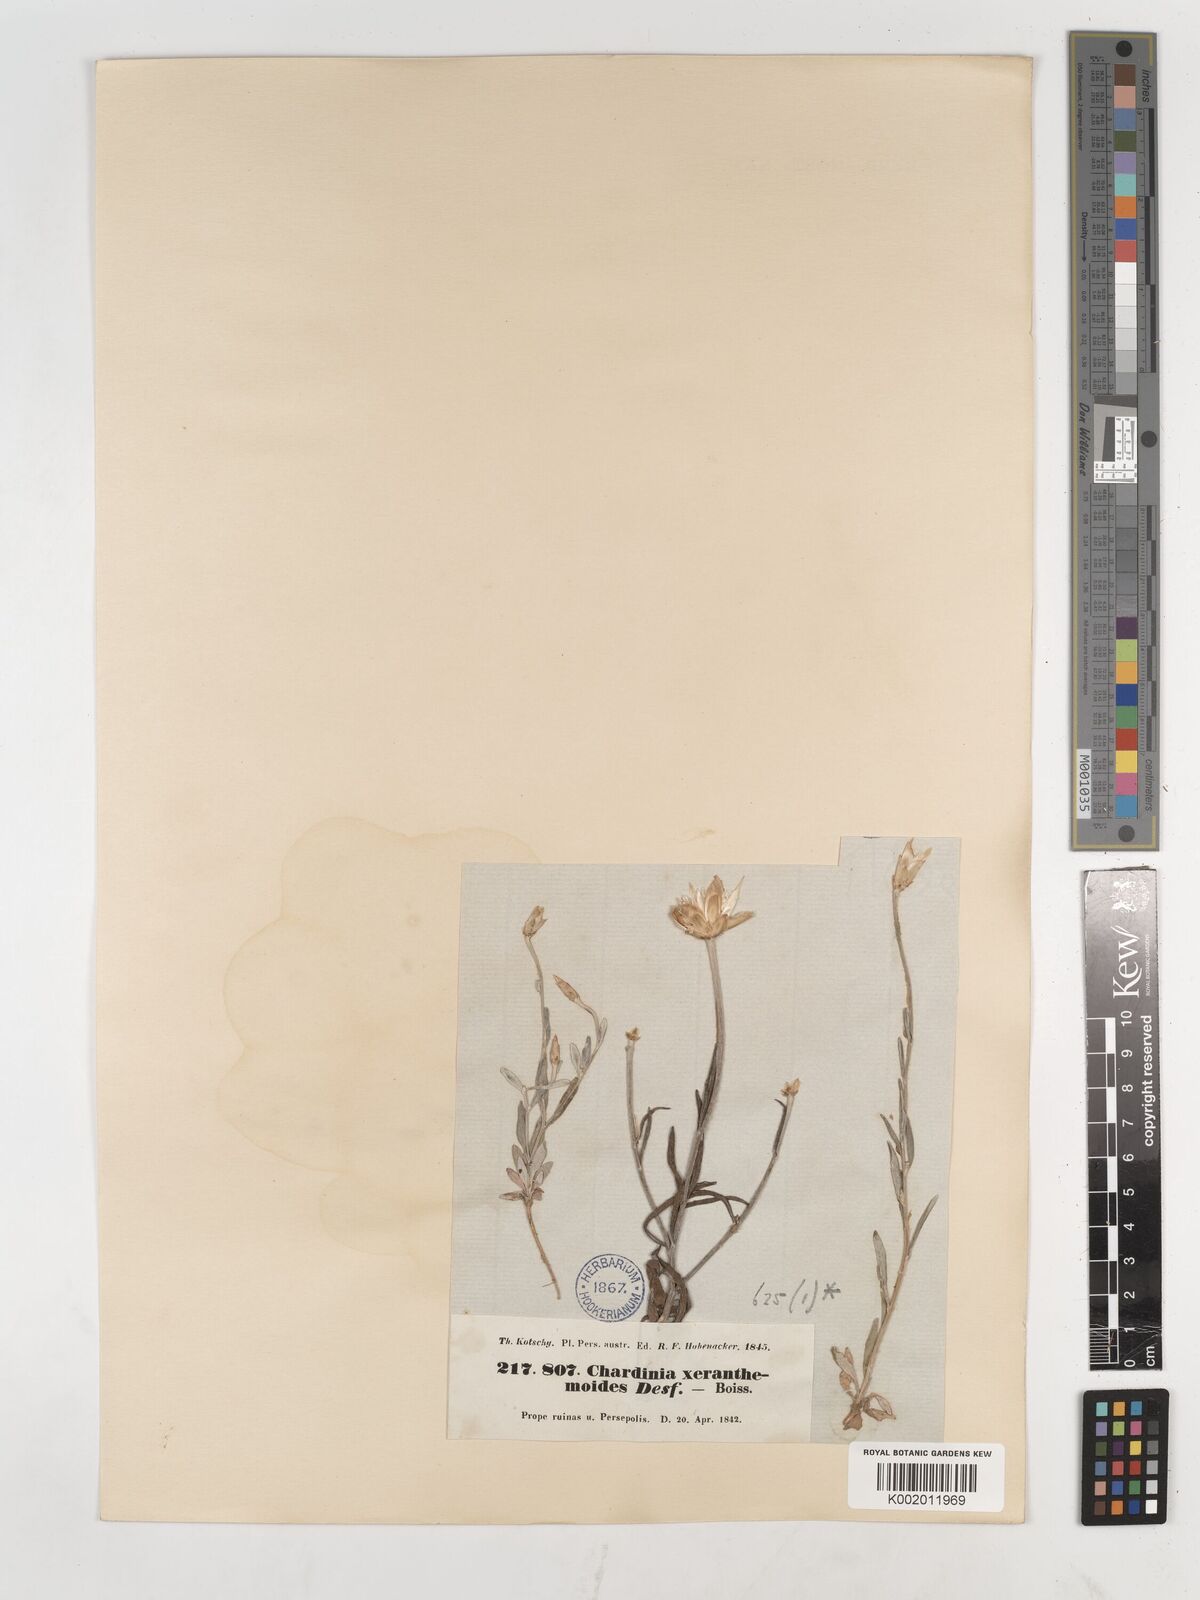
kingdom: Plantae
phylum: Tracheophyta
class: Magnoliopsida
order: Asterales
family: Asteraceae
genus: Chardinia
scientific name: Chardinia orientalis
